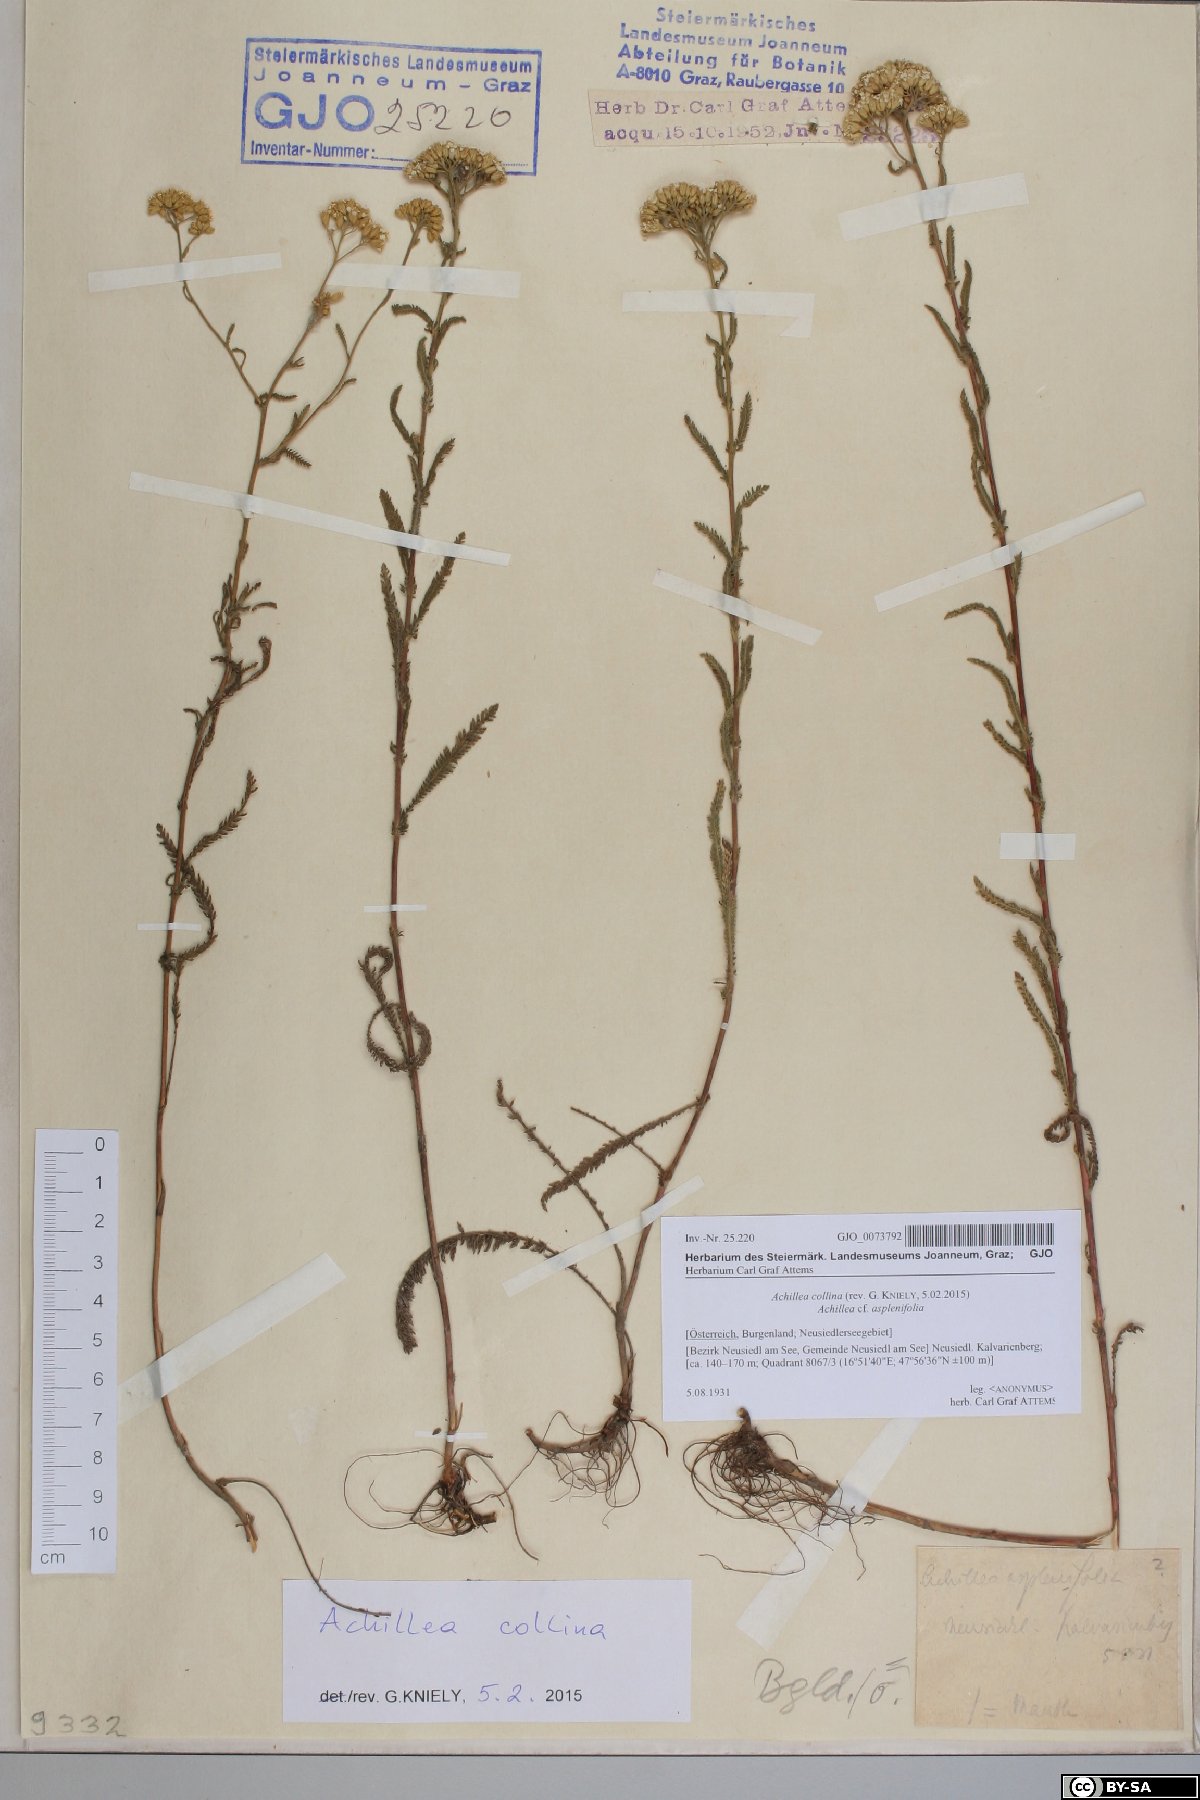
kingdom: Plantae
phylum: Tracheophyta
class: Magnoliopsida
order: Asterales
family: Asteraceae
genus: Achillea
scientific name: Achillea collina
